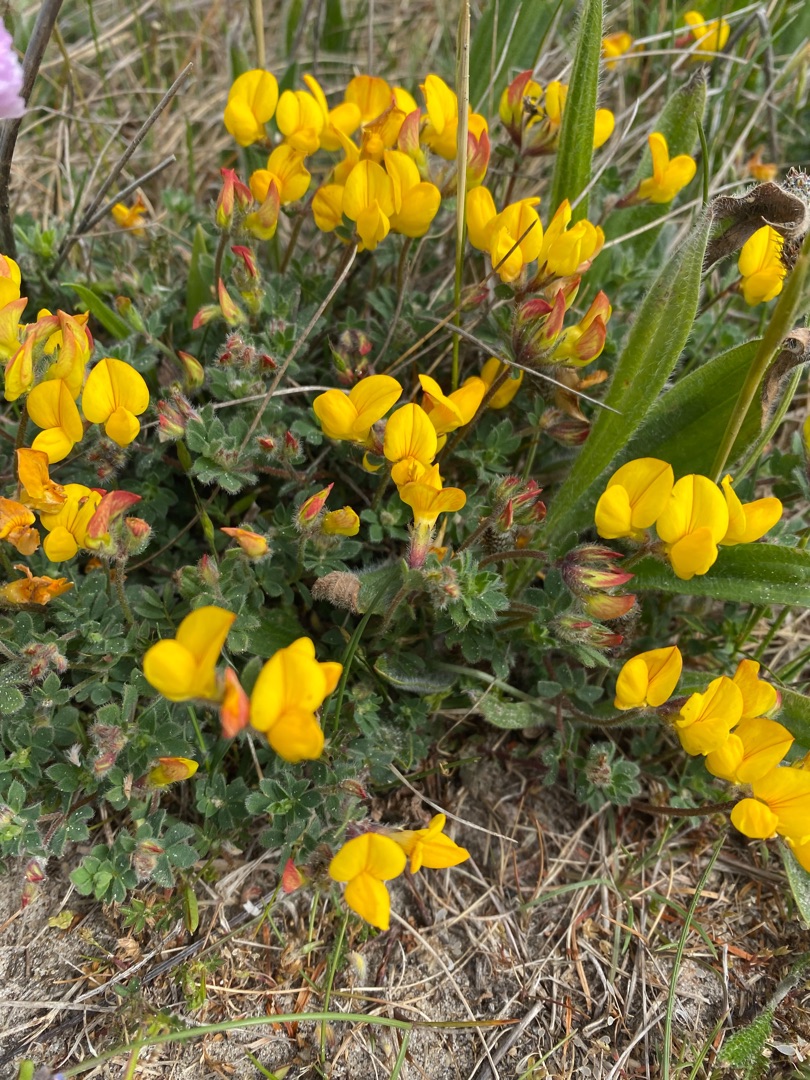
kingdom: Plantae
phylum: Tracheophyta
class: Magnoliopsida
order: Fabales
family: Fabaceae
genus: Lotus
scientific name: Lotus corniculatus
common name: Almindelig kællingetand
